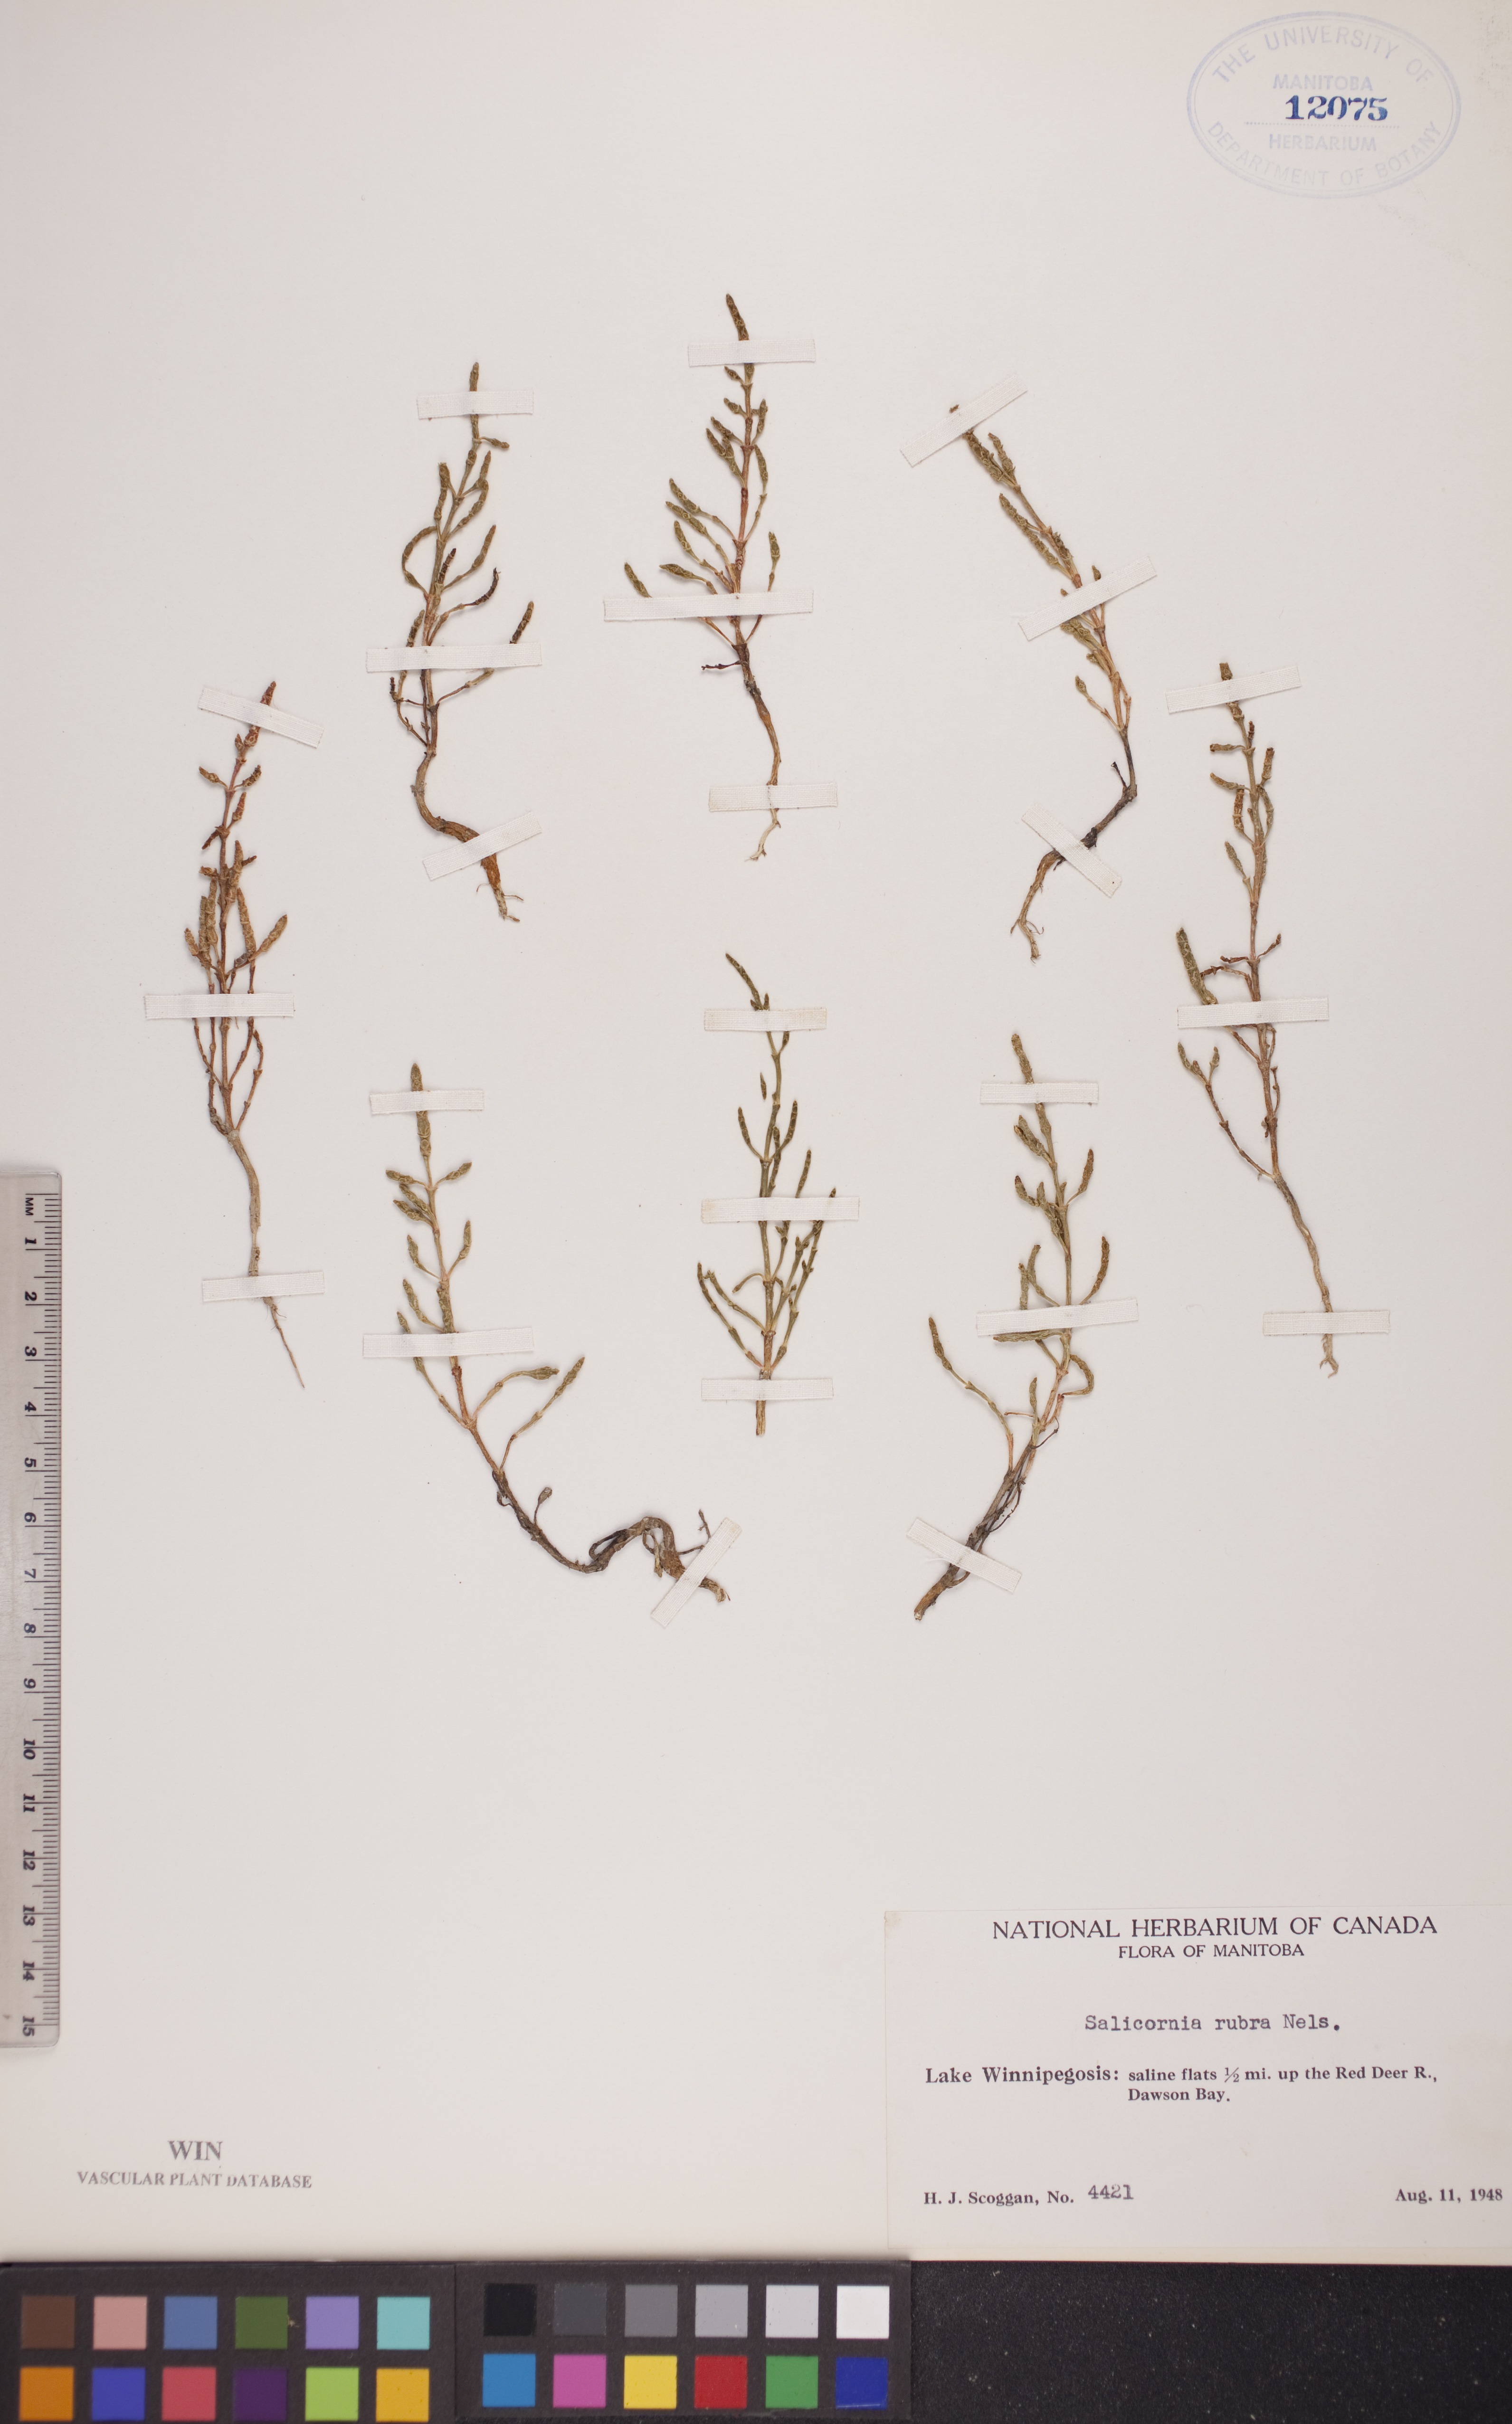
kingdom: Plantae
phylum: Tracheophyta
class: Magnoliopsida
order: Caryophyllales
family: Amaranthaceae
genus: Salicornia
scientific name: Salicornia rubra
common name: Red glasswort
